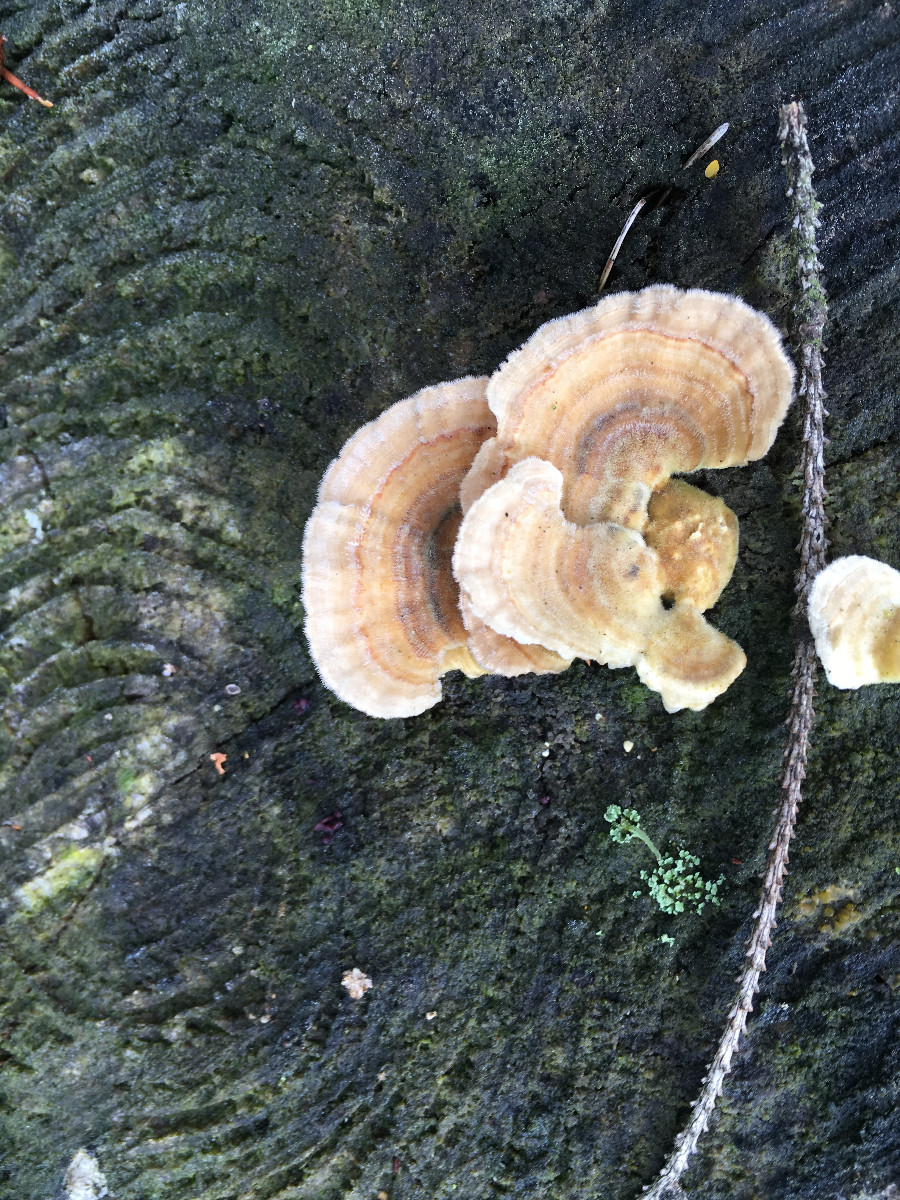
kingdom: Fungi
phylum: Basidiomycota
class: Agaricomycetes
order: Polyporales
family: Polyporaceae
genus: Trametes
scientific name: Trametes versicolor
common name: broget læderporesvamp
